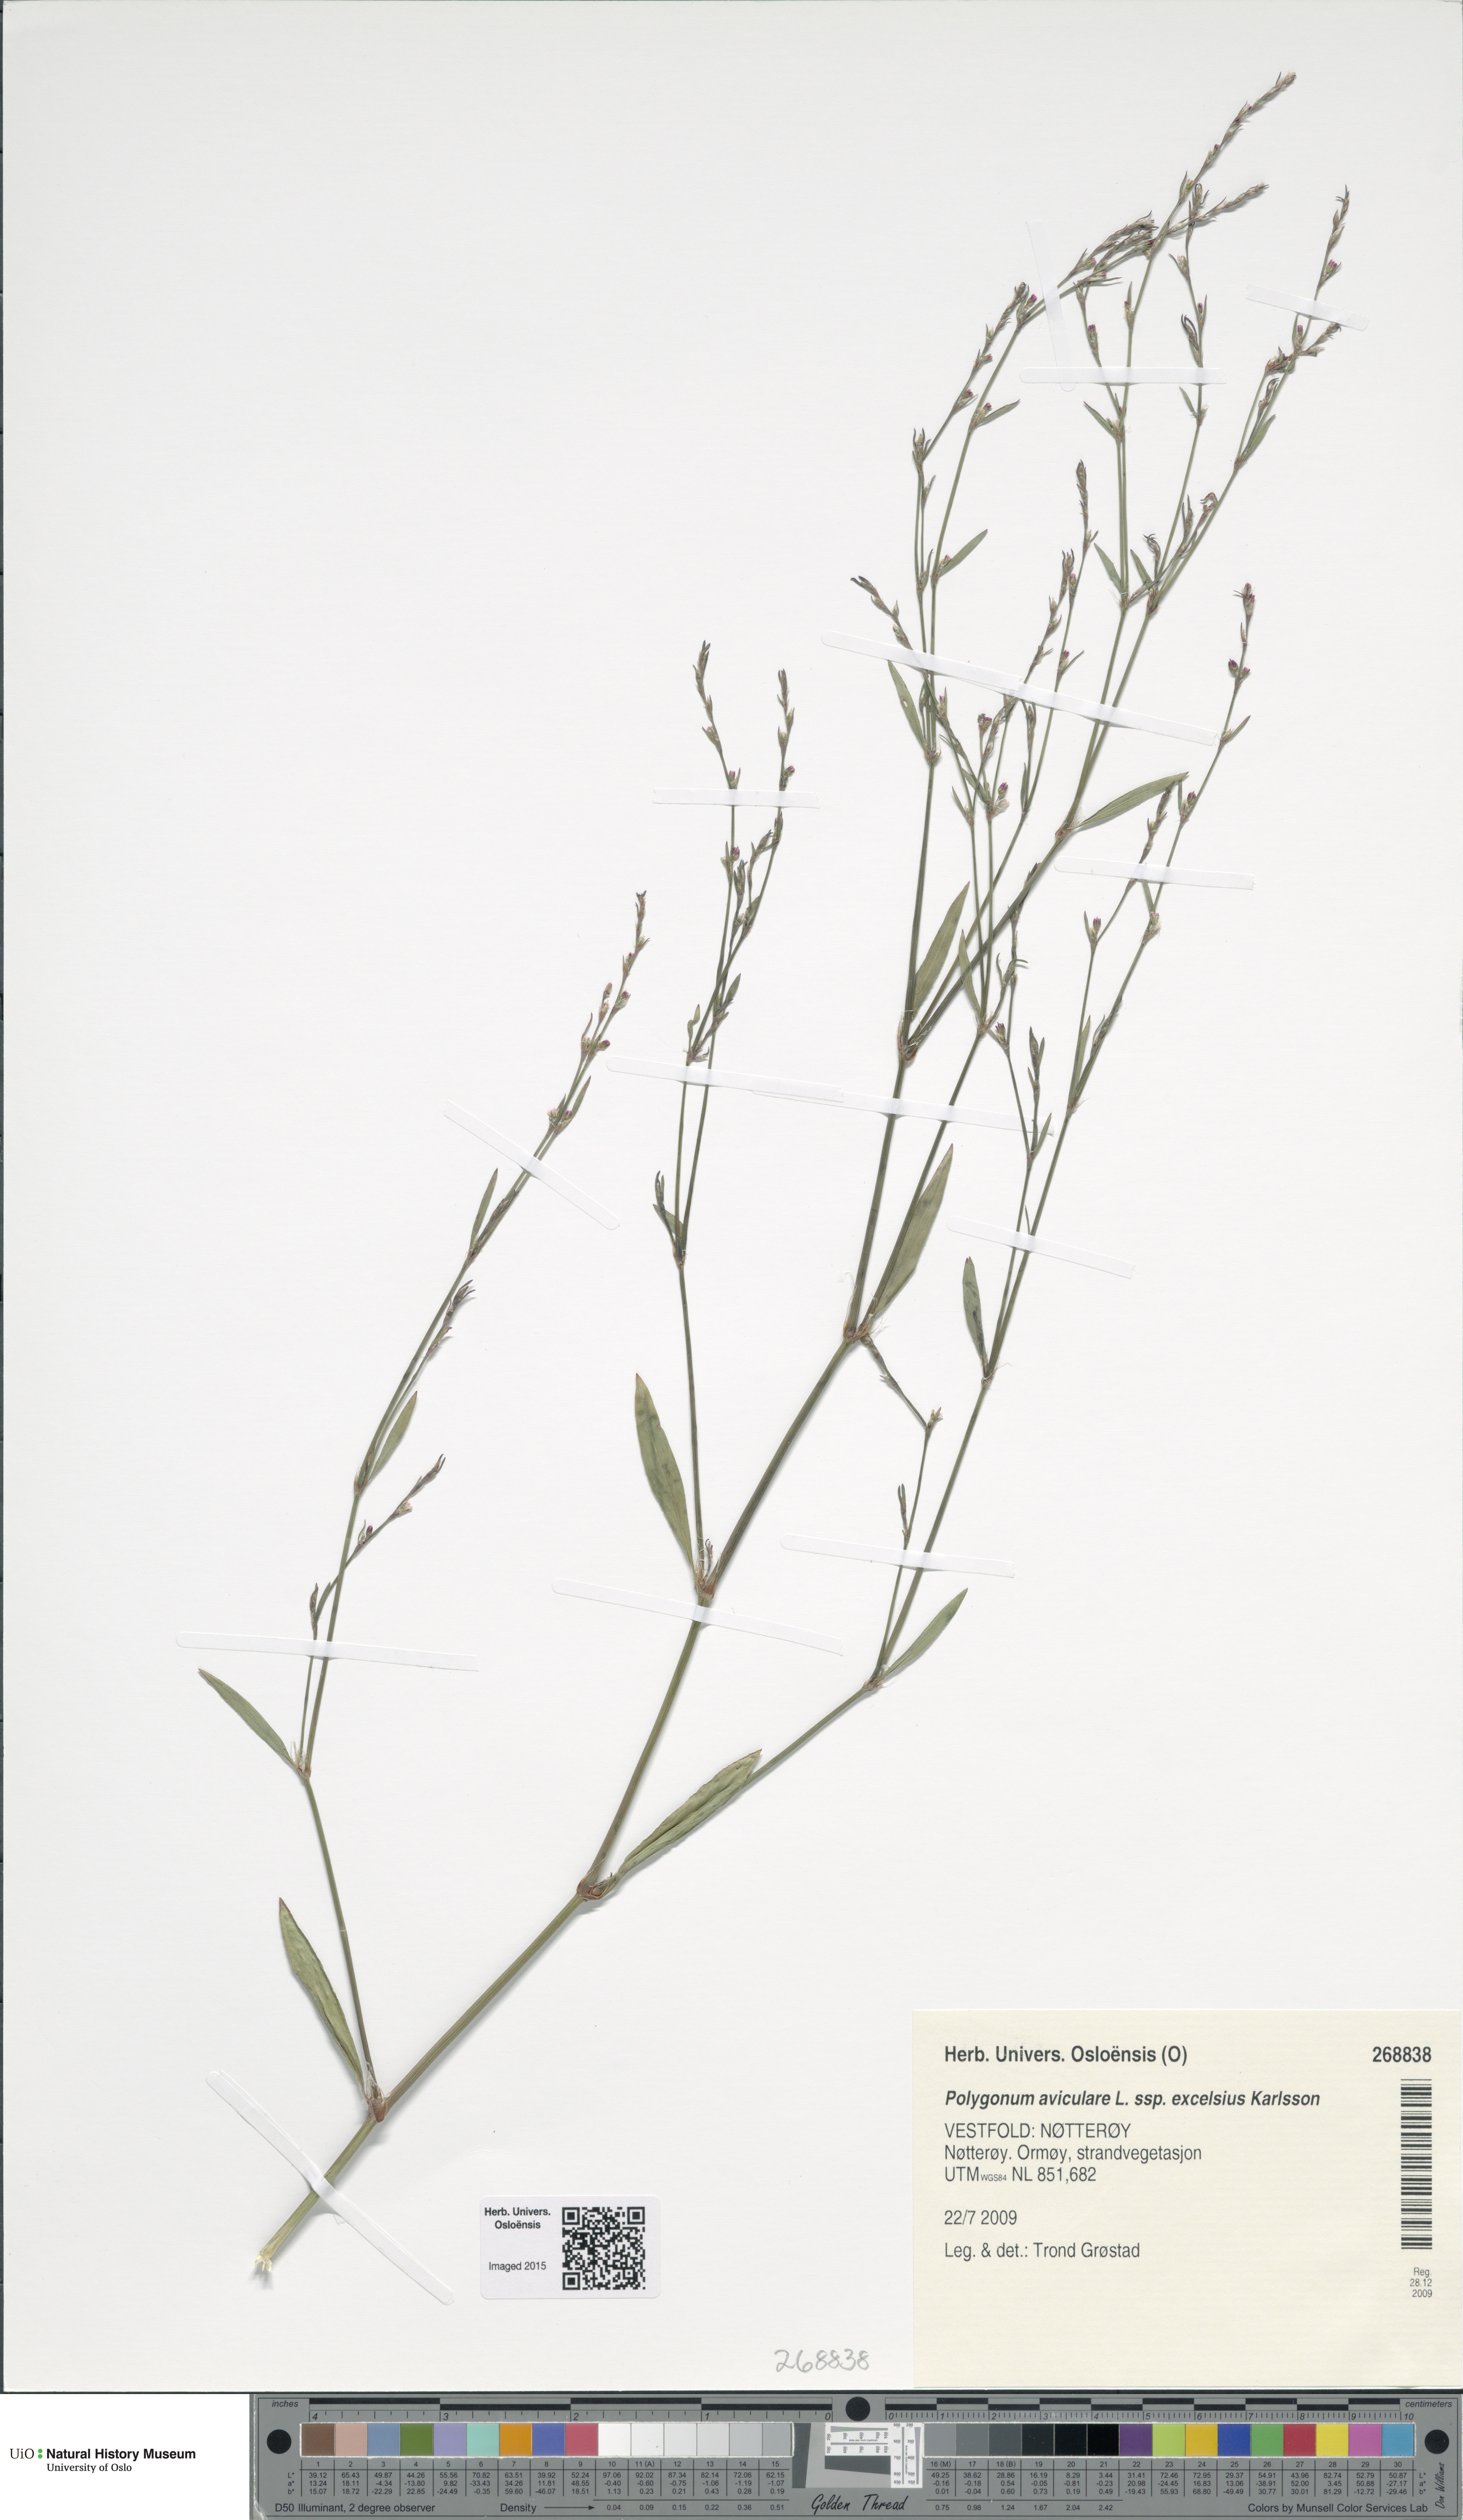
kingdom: Plantae
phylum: Tracheophyta
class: Magnoliopsida
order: Caryophyllales
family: Polygonaceae
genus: Polygonum
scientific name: Polygonum excelsius
